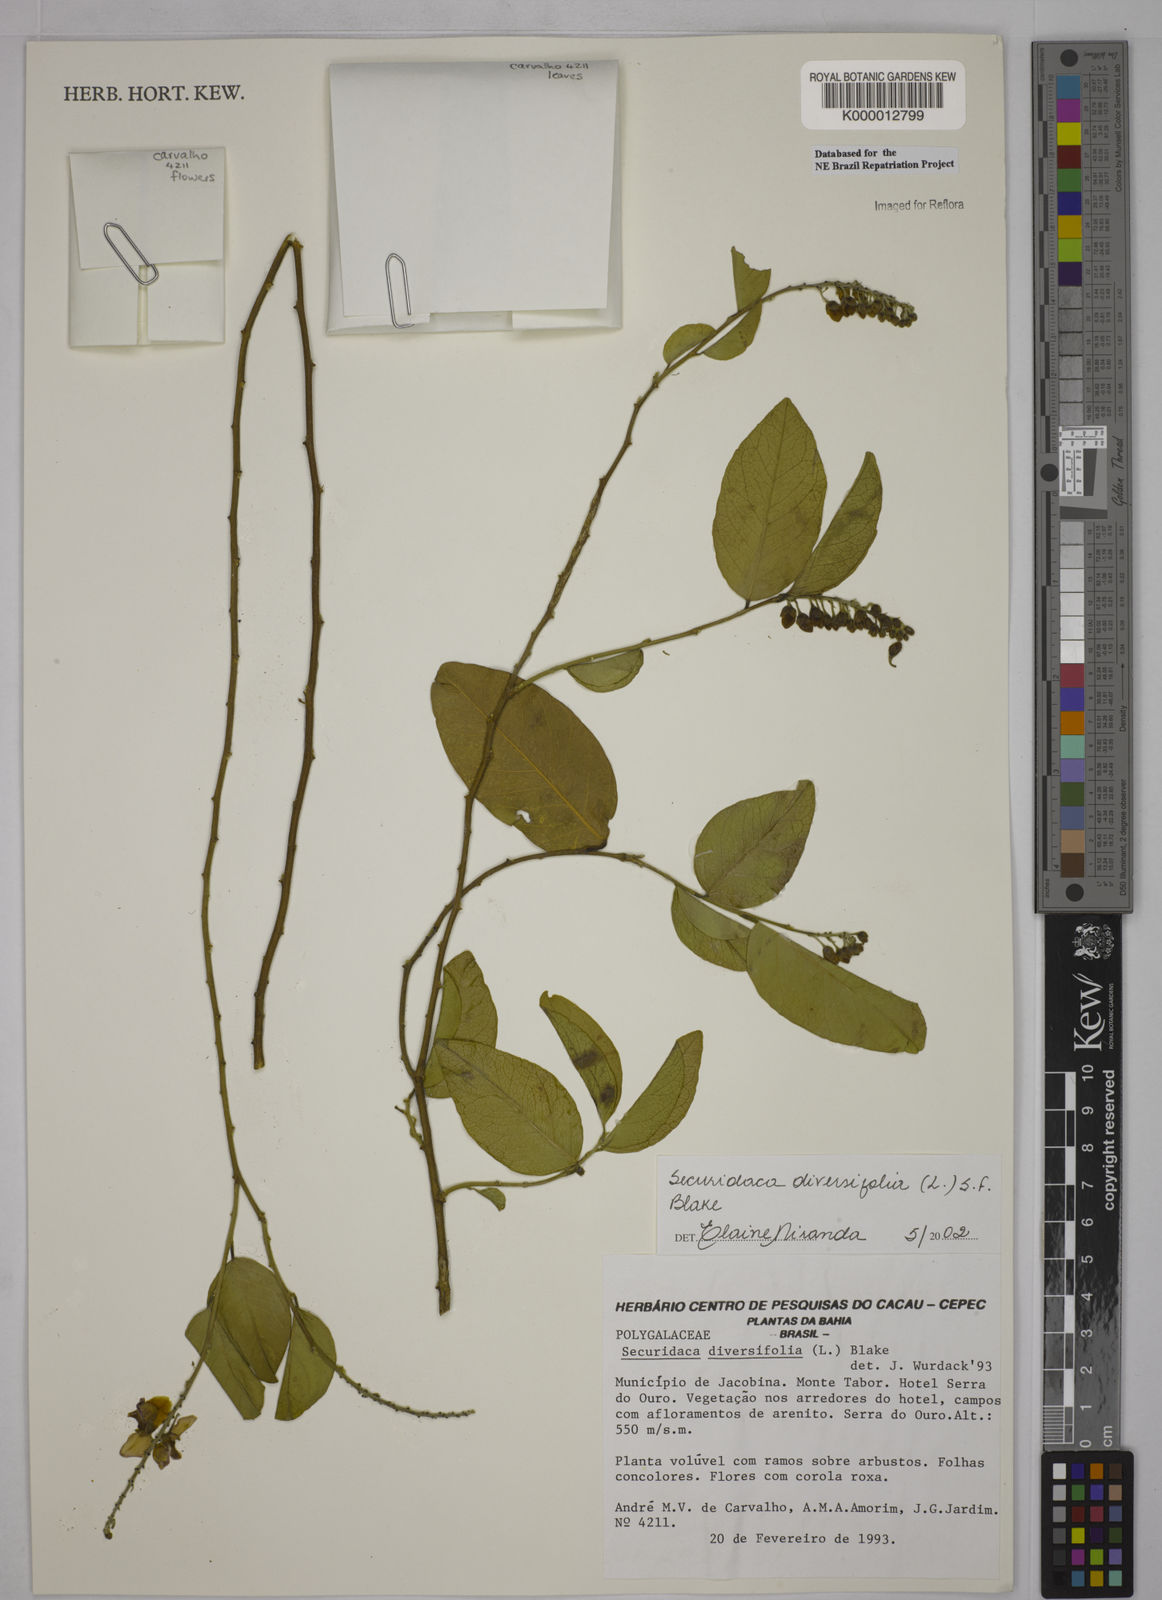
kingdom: Plantae
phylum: Tracheophyta
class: Magnoliopsida
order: Fabales
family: Polygalaceae
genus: Securidaca
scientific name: Securidaca diversifolia
